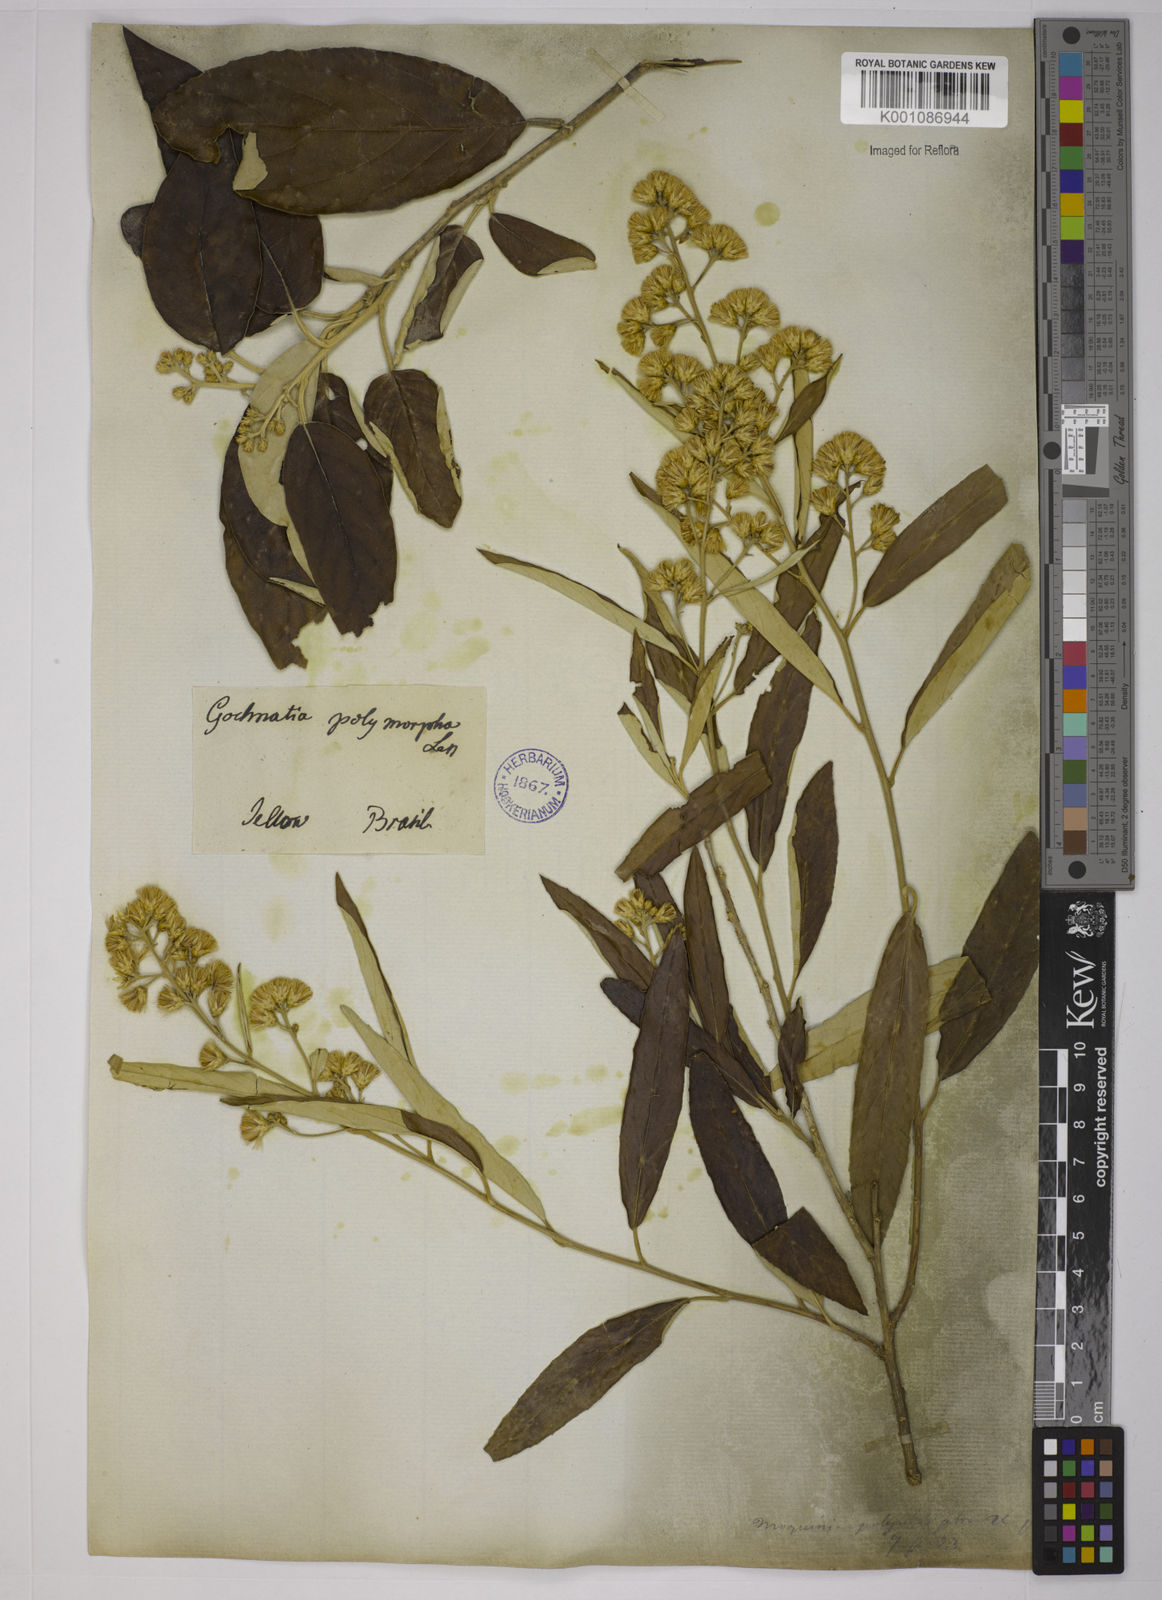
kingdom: Plantae
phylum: Tracheophyta
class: Magnoliopsida
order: Asterales
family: Asteraceae
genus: Moquiniastrum
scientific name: Moquiniastrum polymorphum
